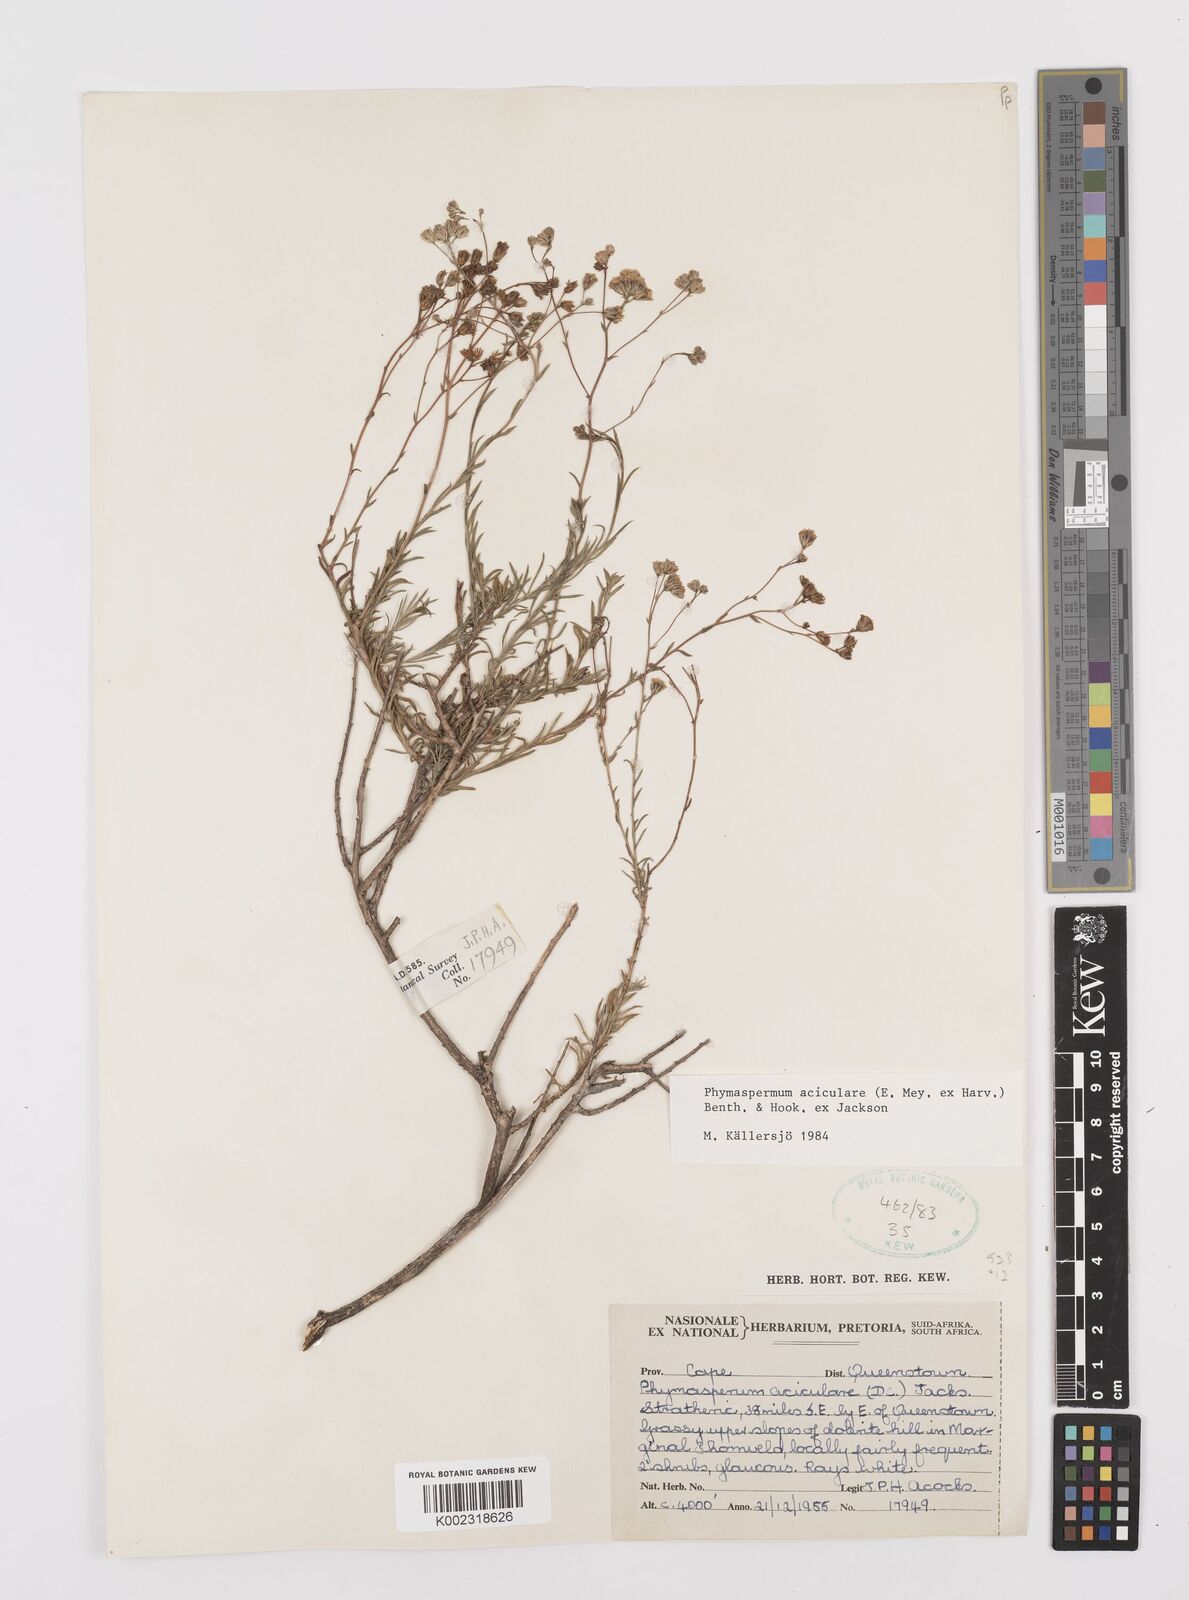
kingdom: Plantae
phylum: Tracheophyta
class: Magnoliopsida
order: Asterales
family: Asteraceae
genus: Phymaspermum
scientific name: Phymaspermum aciculare
